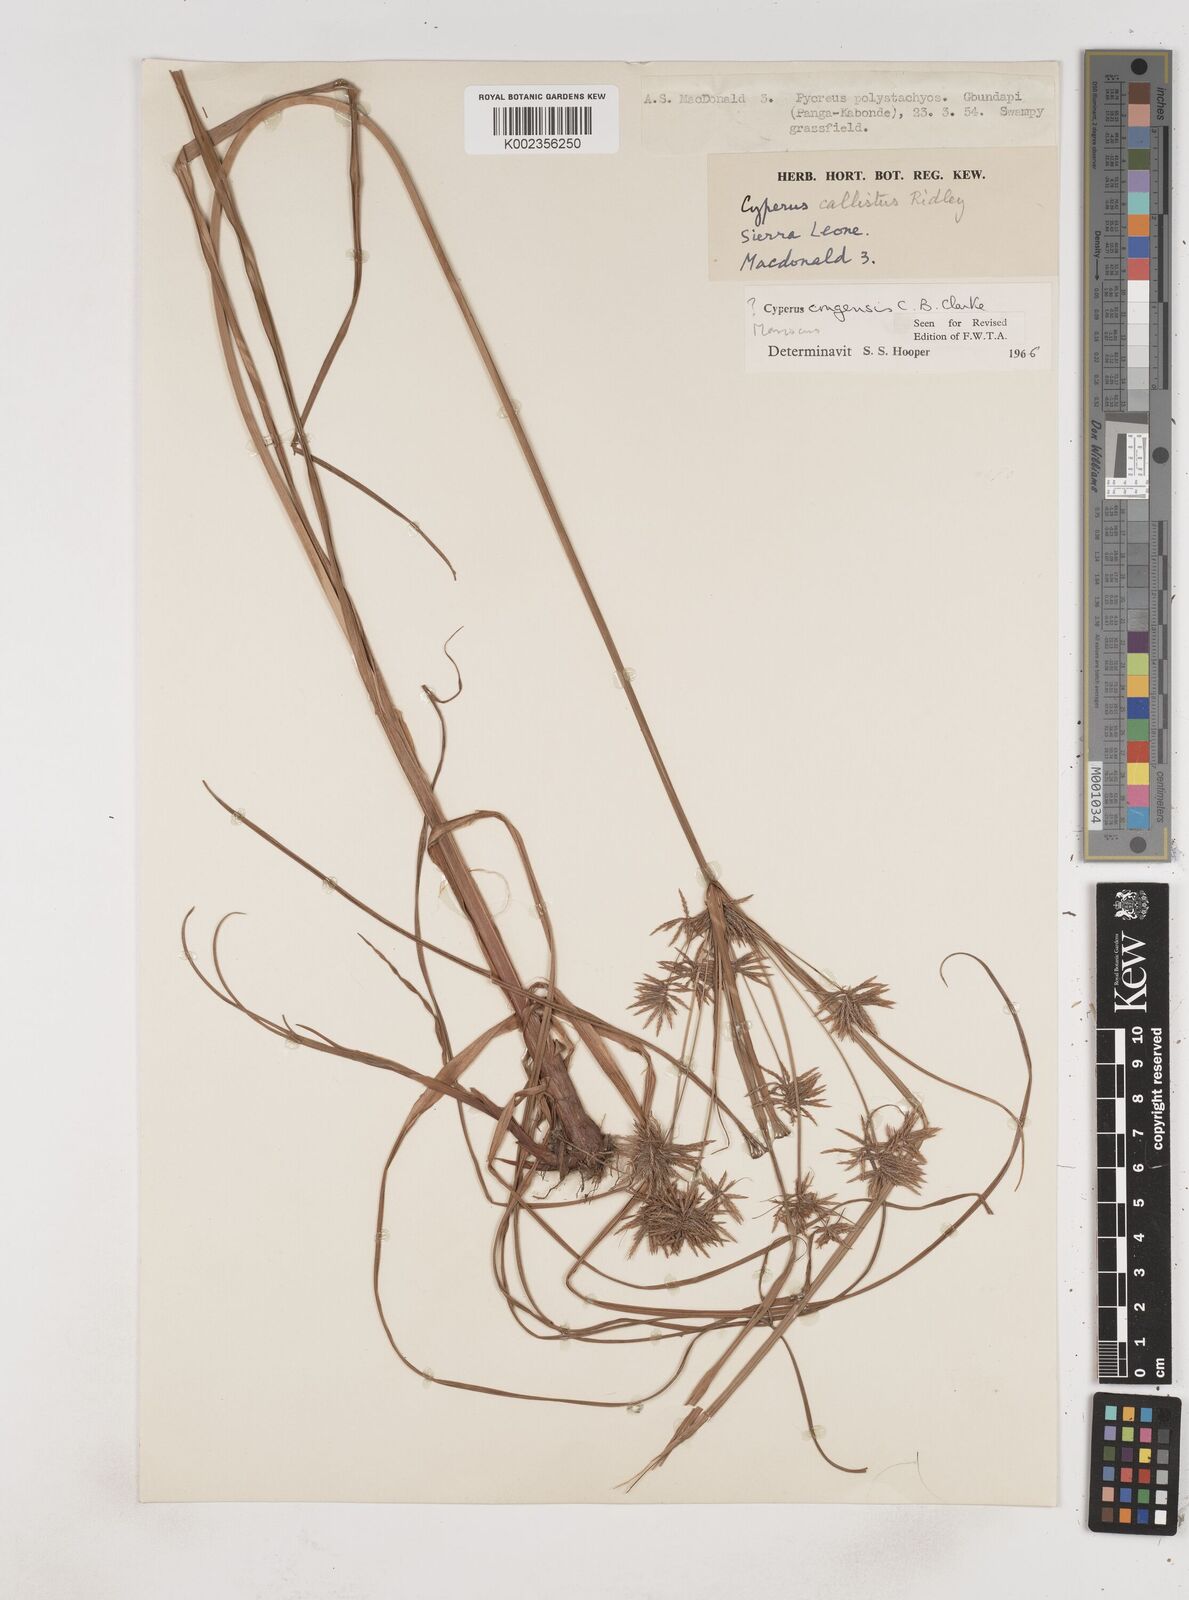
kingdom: Plantae
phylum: Tracheophyta
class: Liliopsida
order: Poales
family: Cyperaceae
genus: Cyperus
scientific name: Cyperus congensis
